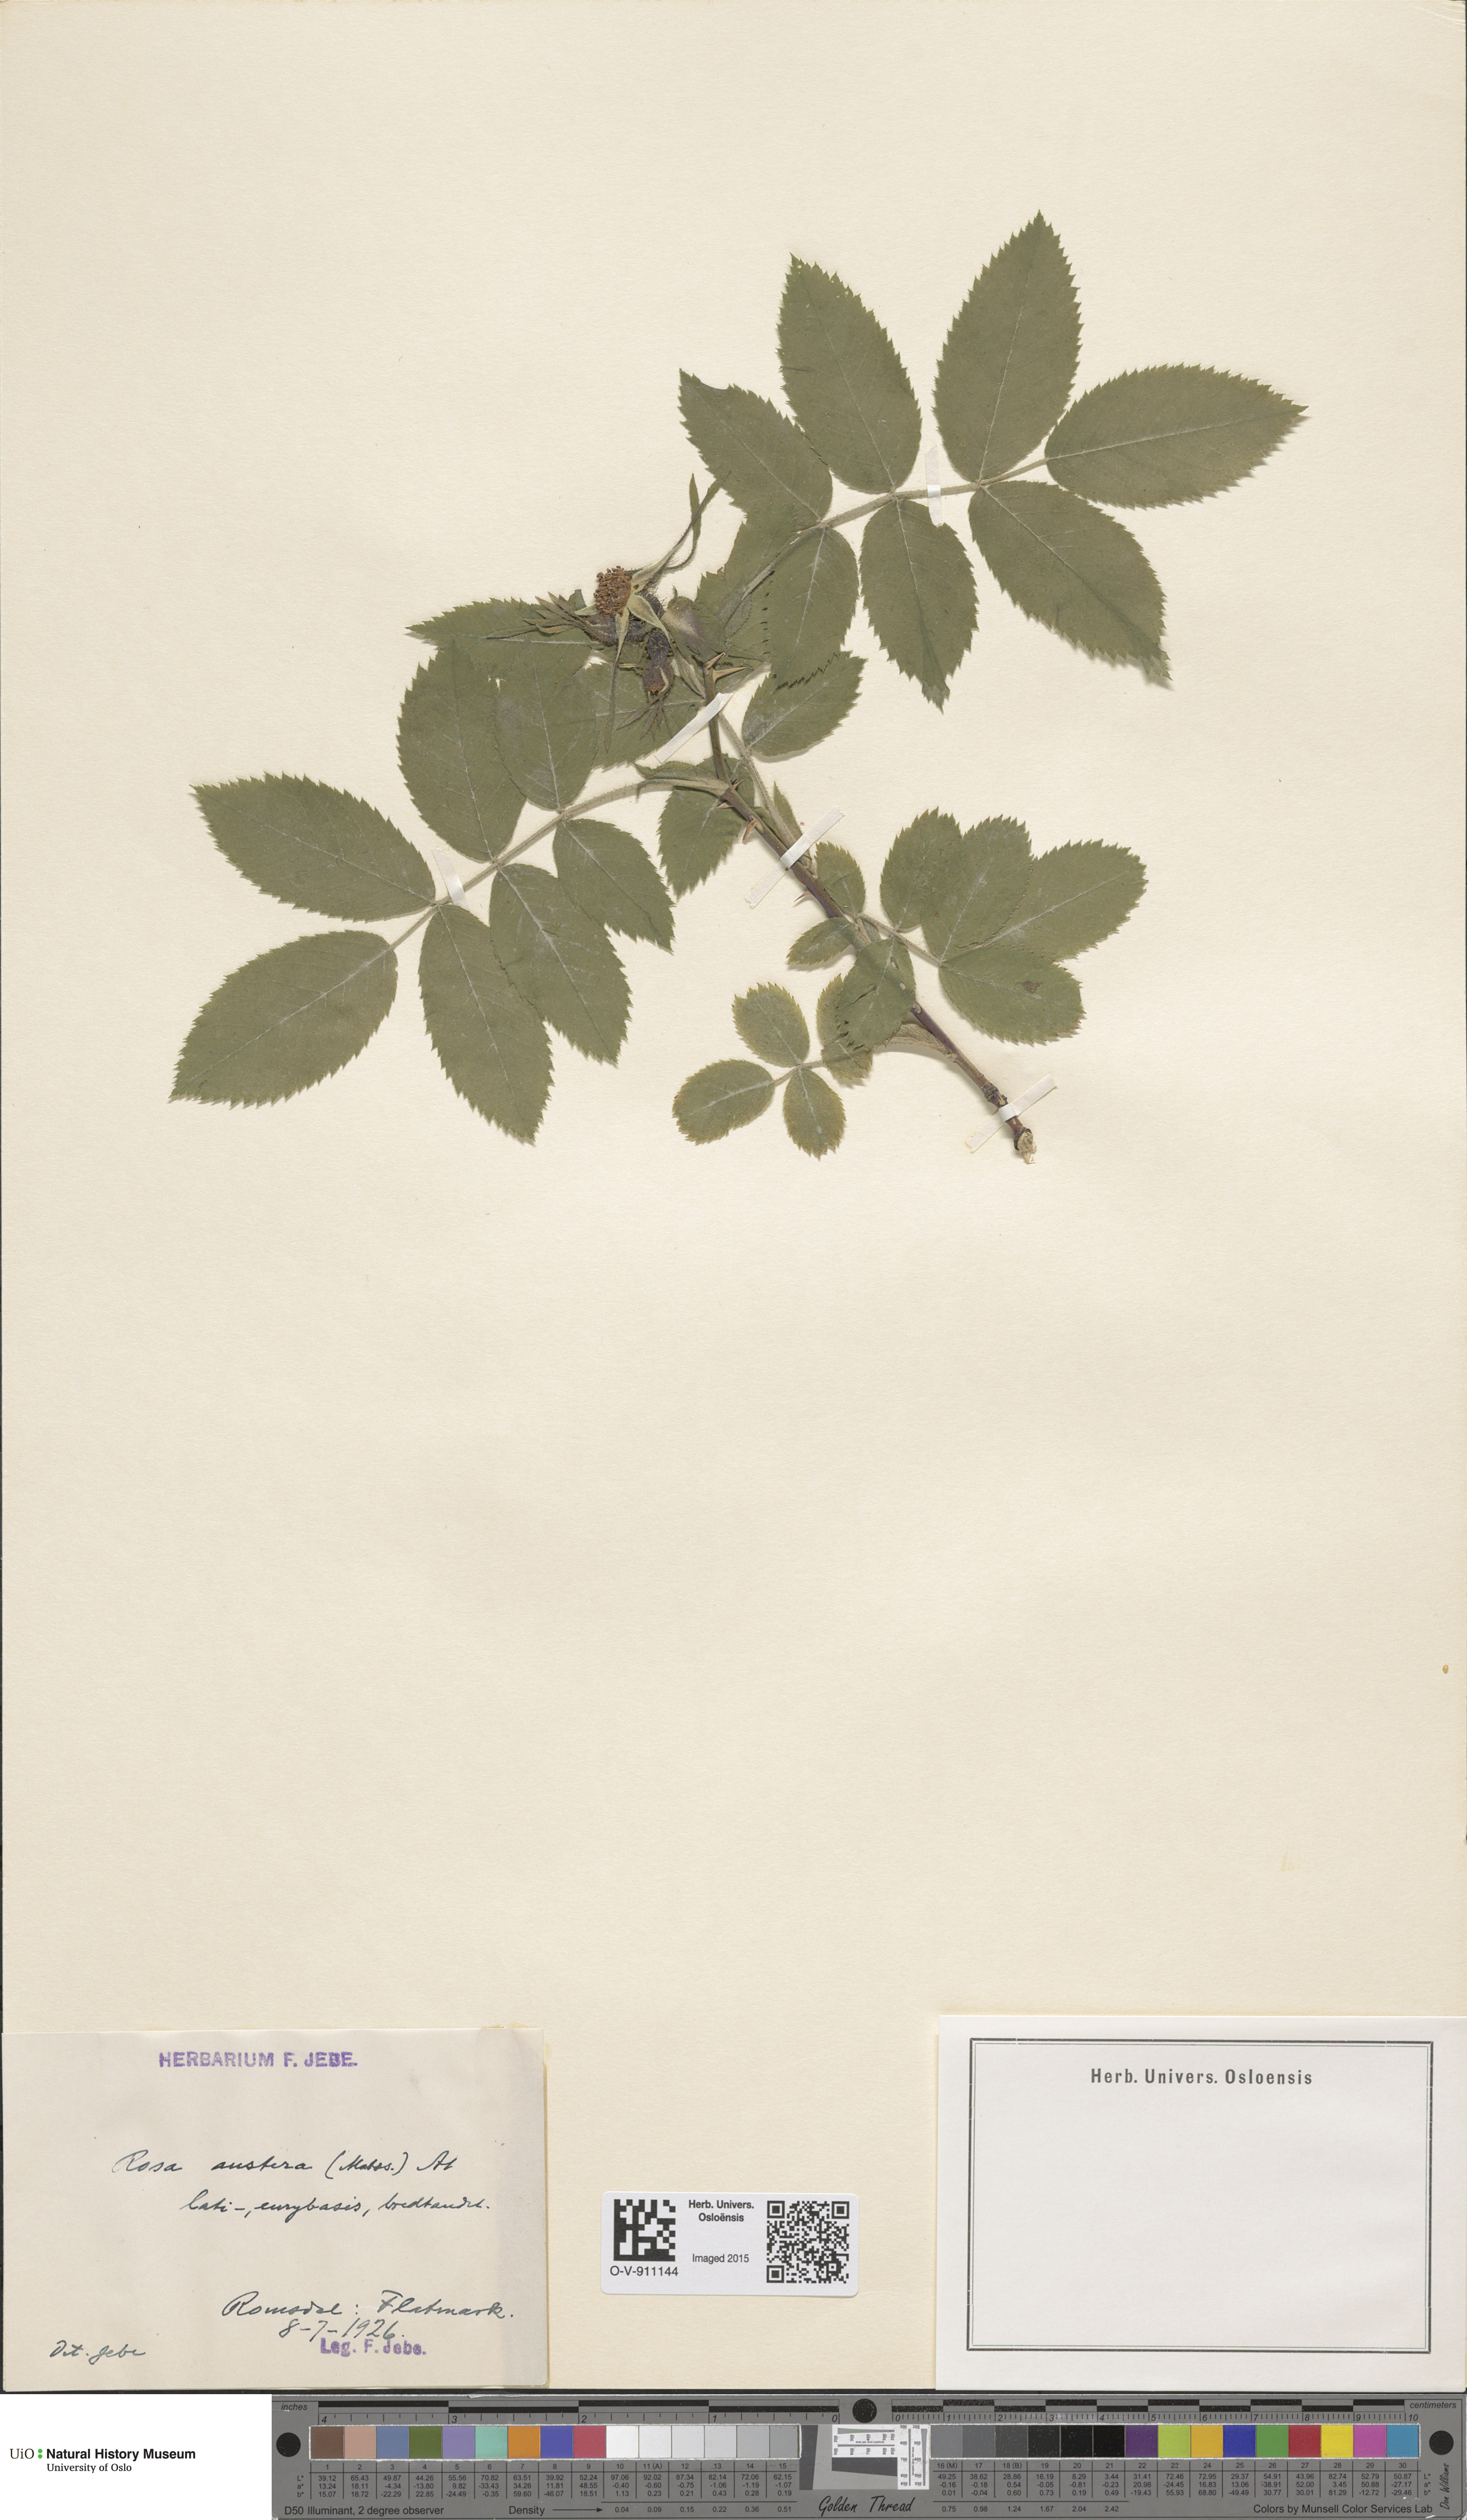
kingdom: Plantae
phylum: Tracheophyta
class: Magnoliopsida
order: Rosales
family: Rosaceae
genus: Rosa
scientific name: Rosa mollis
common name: Rose
